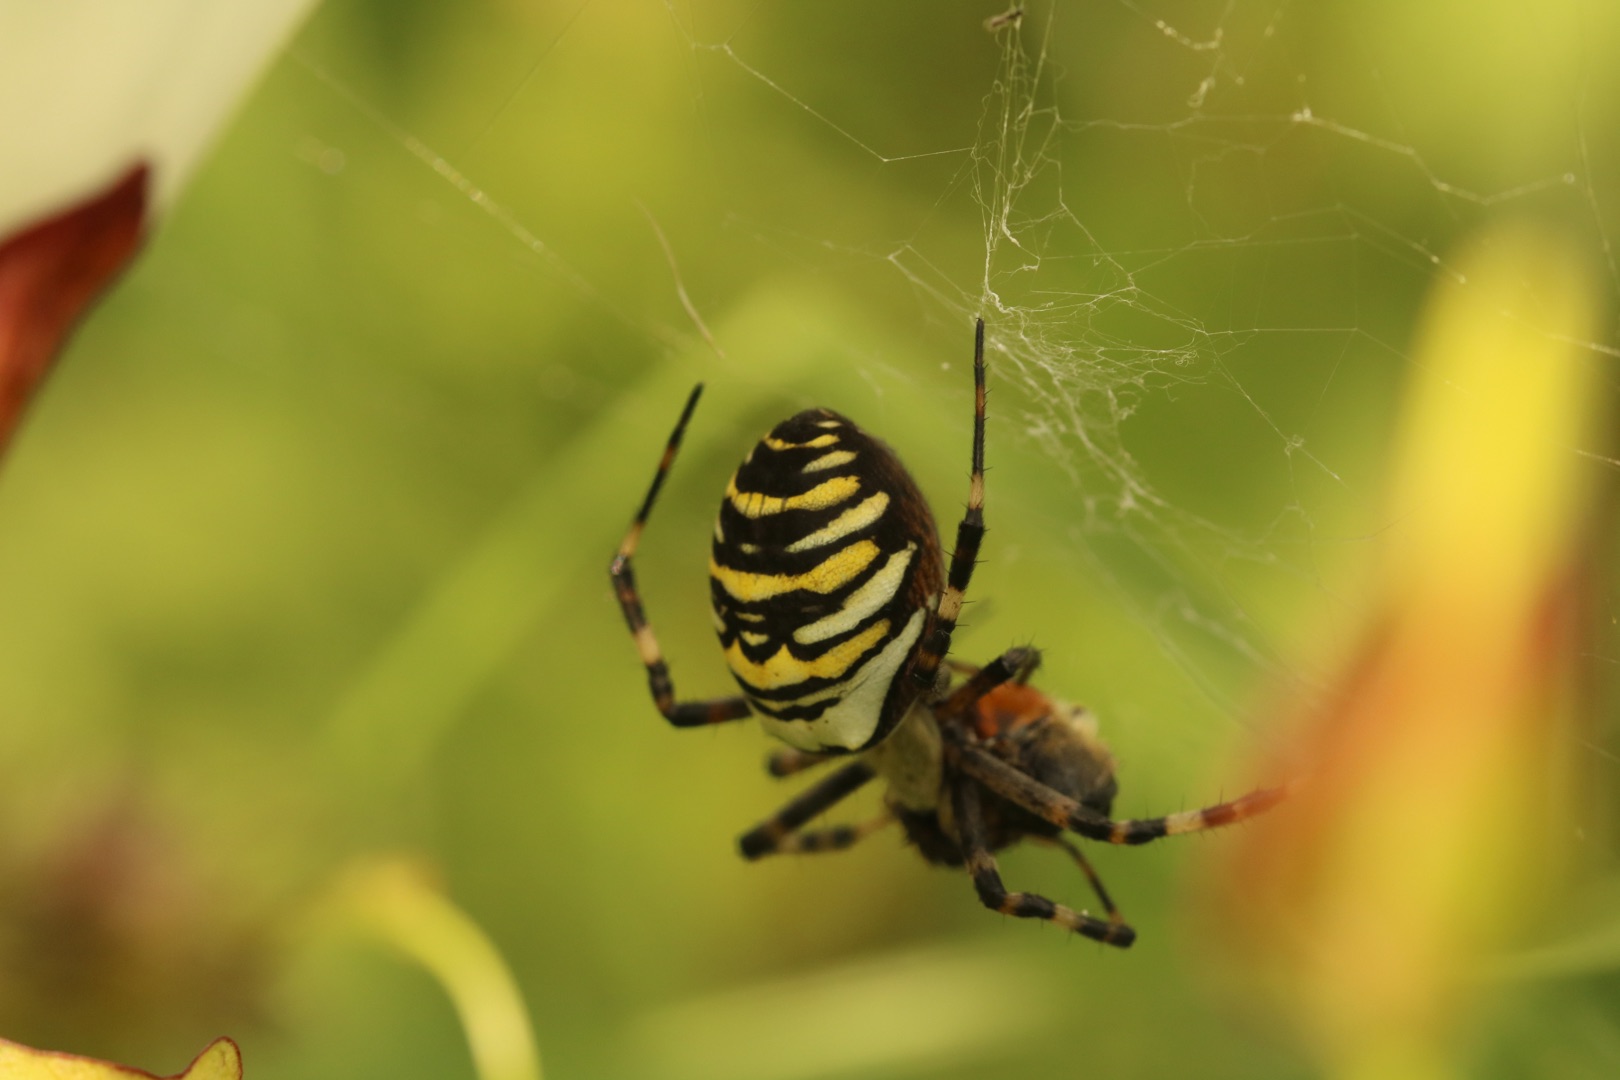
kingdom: Animalia
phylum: Arthropoda
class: Arachnida
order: Araneae
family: Araneidae
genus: Argiope
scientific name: Argiope bruennichi
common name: Hvepseedderkop
